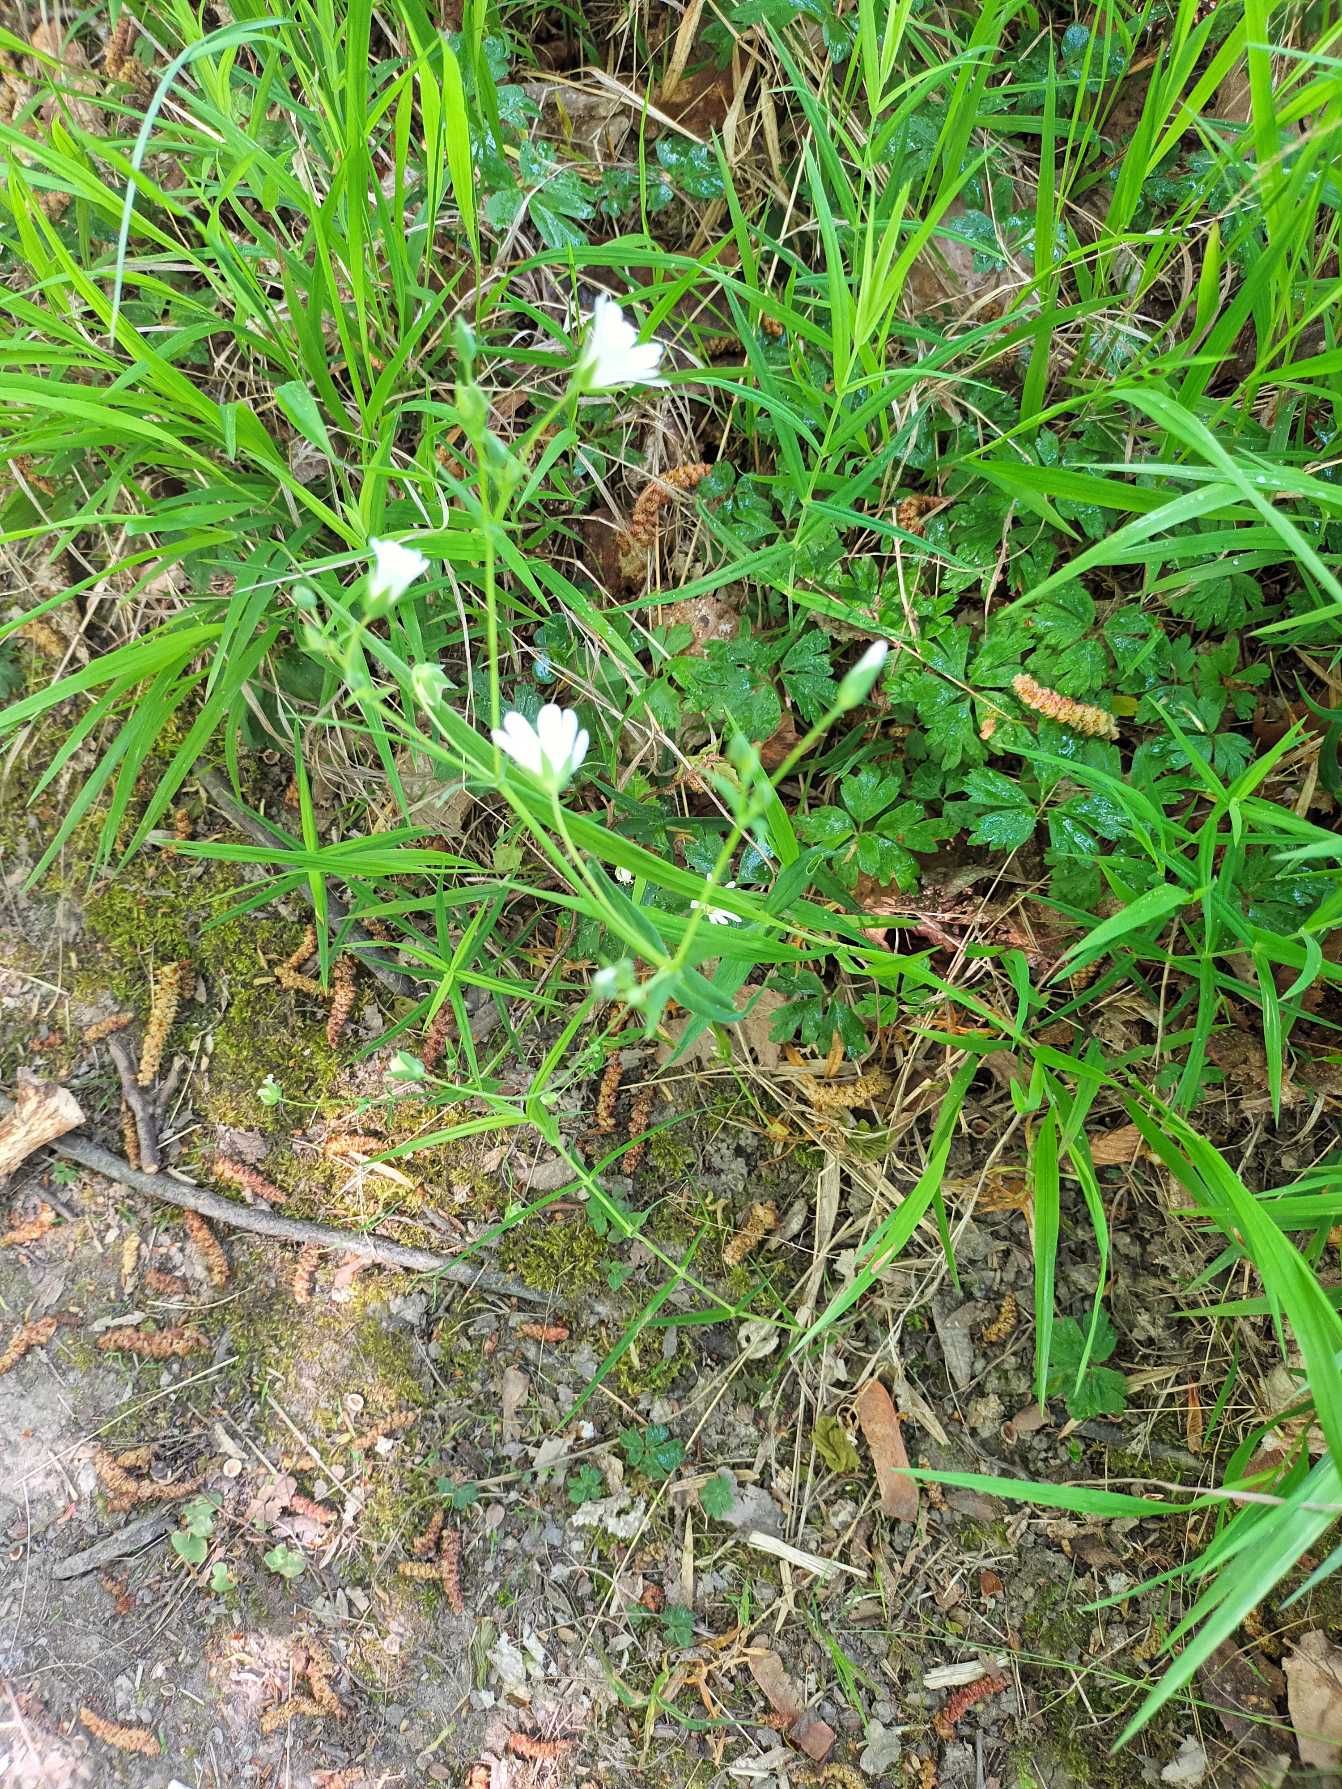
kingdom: Plantae
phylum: Tracheophyta
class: Magnoliopsida
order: Caryophyllales
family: Caryophyllaceae
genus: Rabelera
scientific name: Rabelera holostea
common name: Stor fladstjerne
